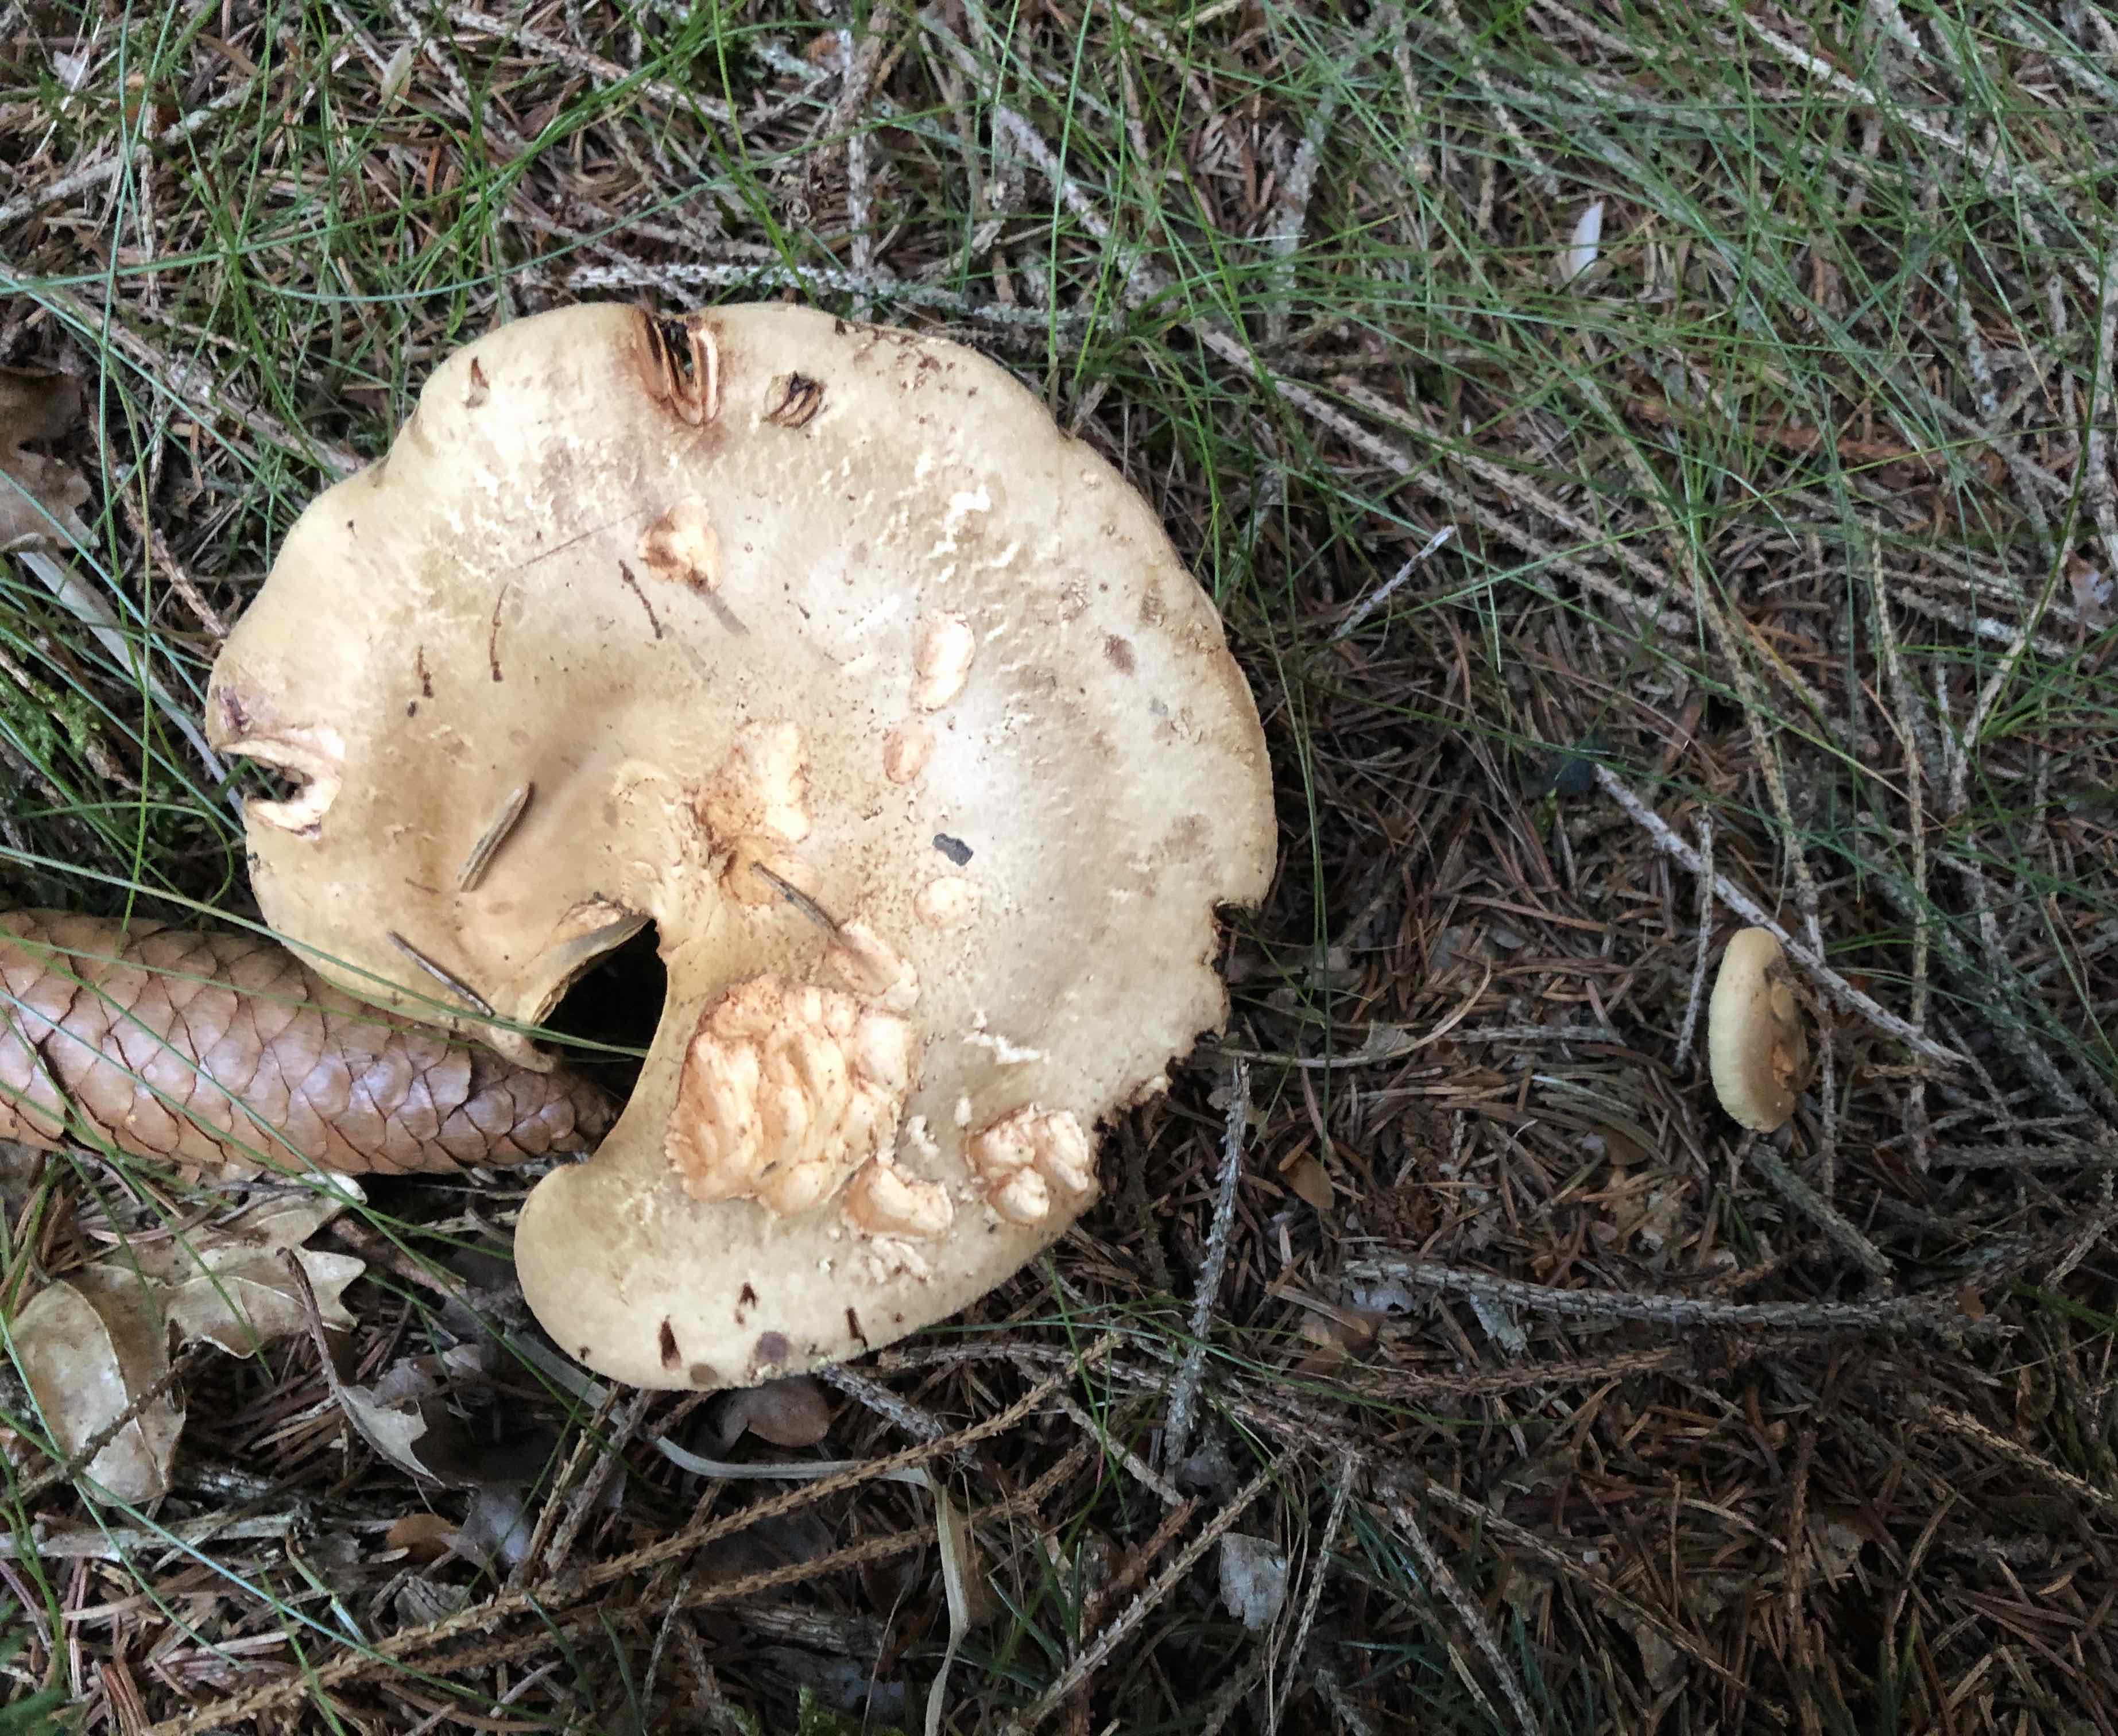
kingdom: Fungi
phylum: Basidiomycota
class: Agaricomycetes
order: Boletales
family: Paxillaceae
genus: Paxillus
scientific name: Paxillus involutus
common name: almindelig netbladhat
